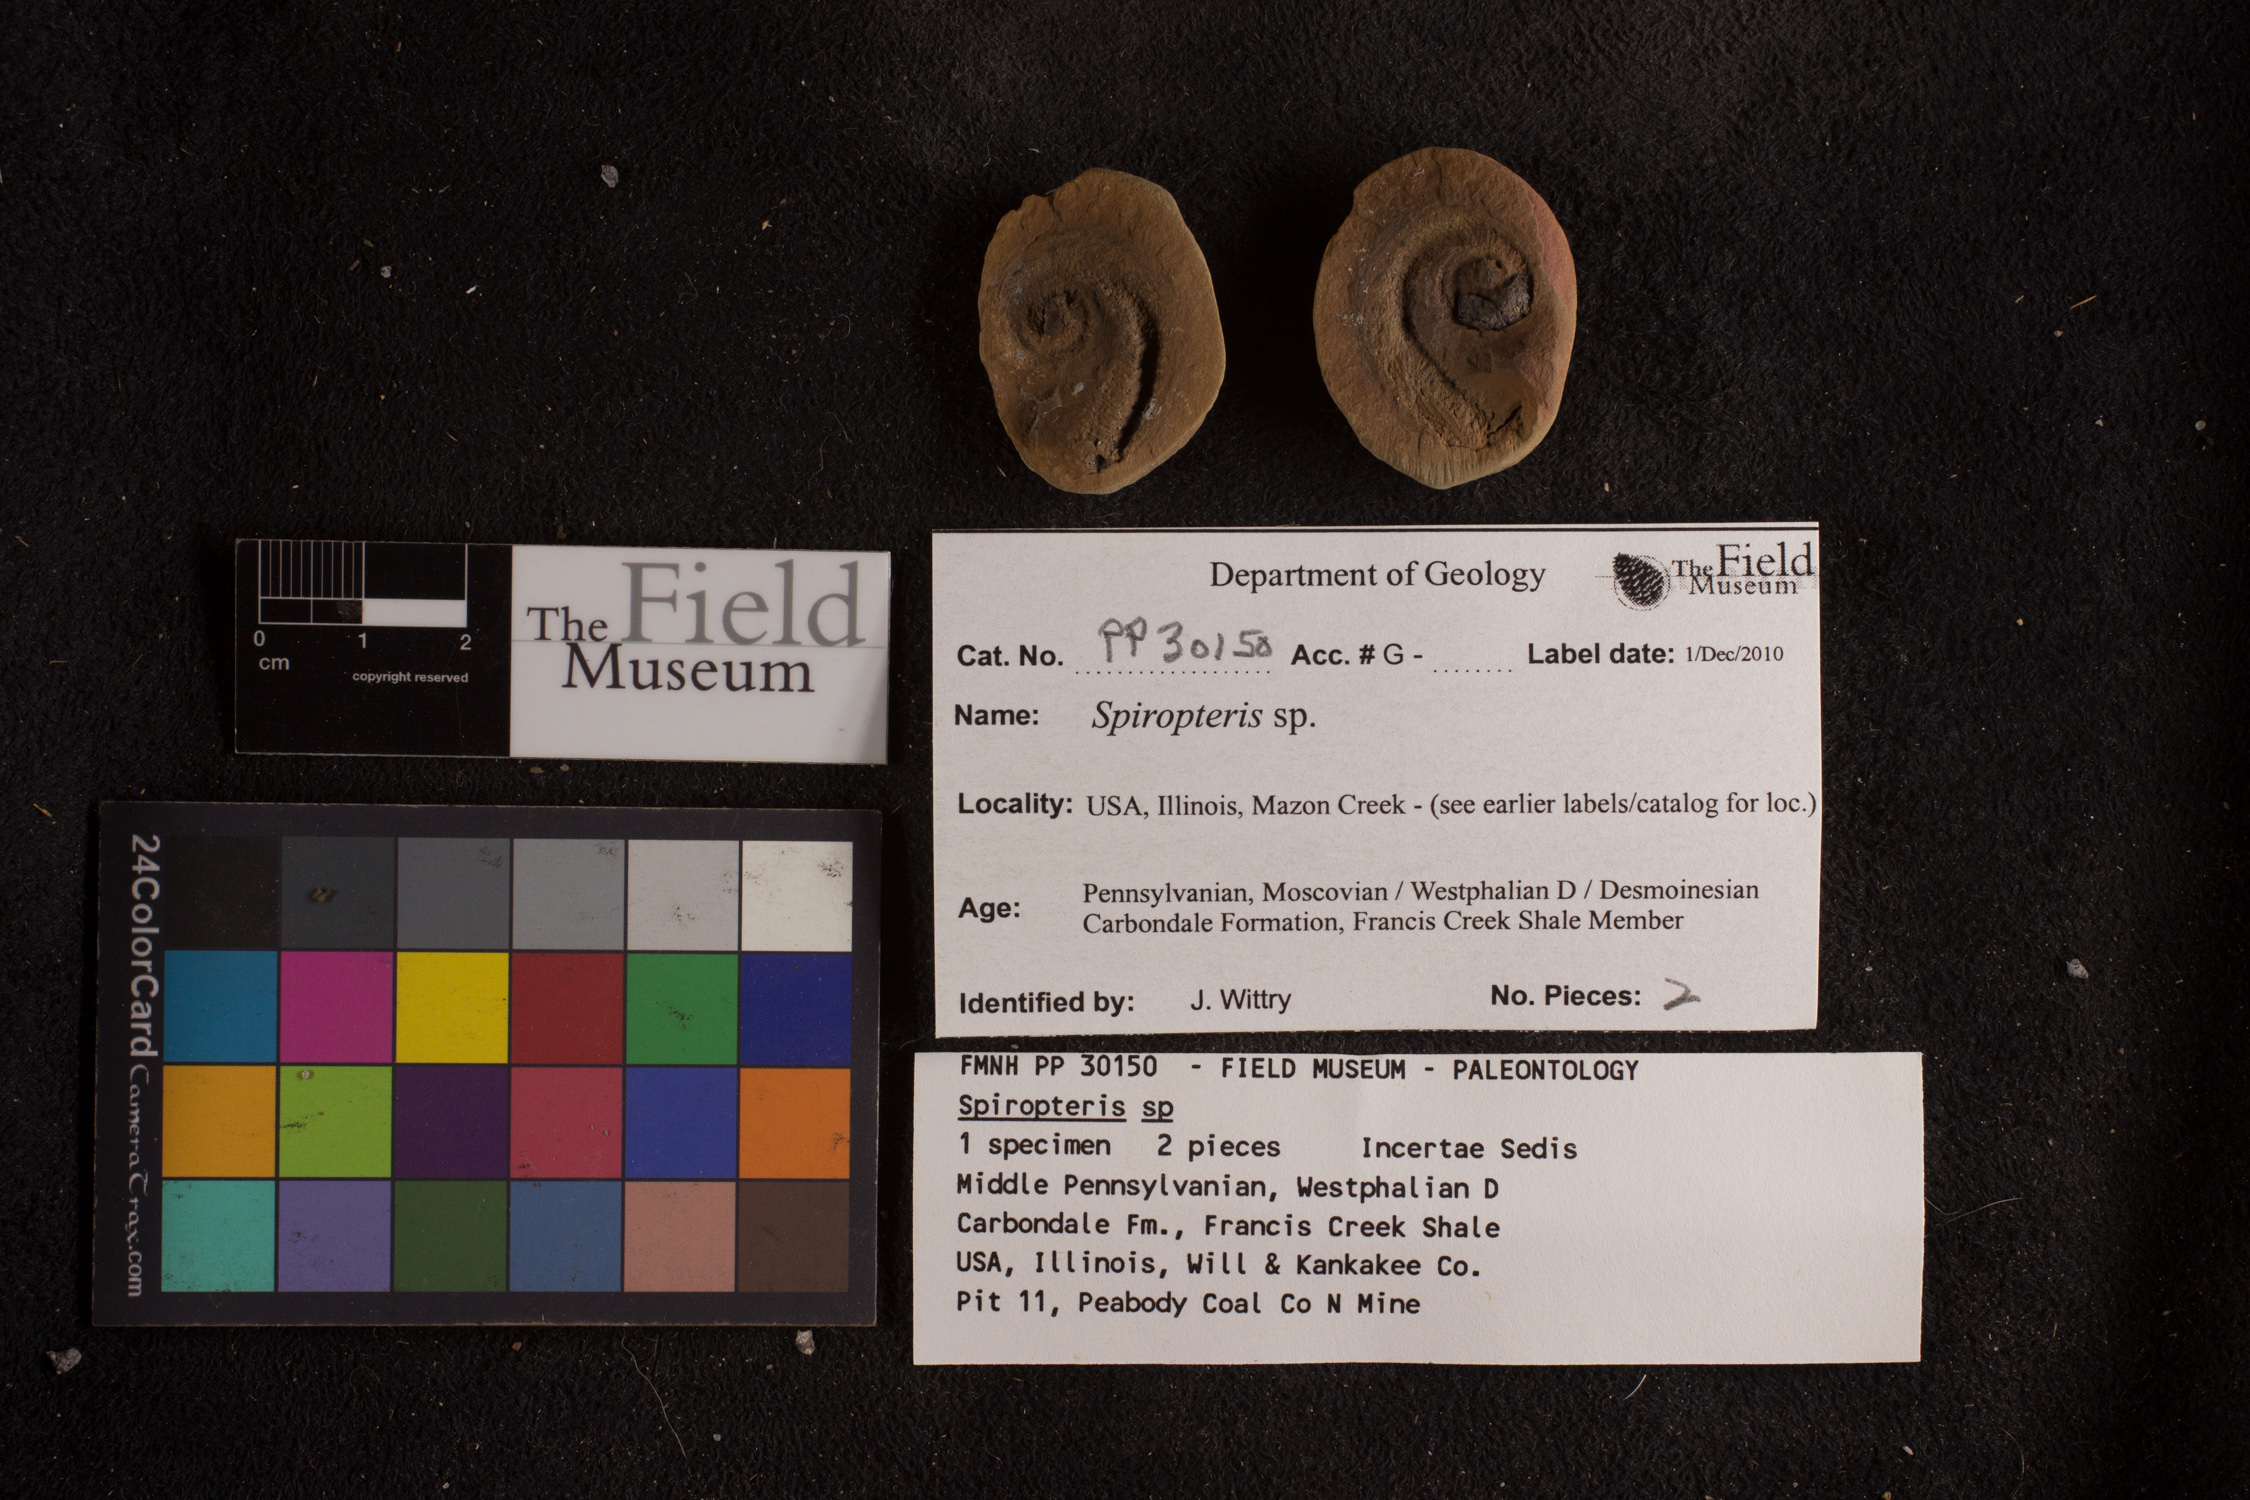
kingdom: Plantae
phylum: Tracheophyta
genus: Spiropteris
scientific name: Spiropteris
